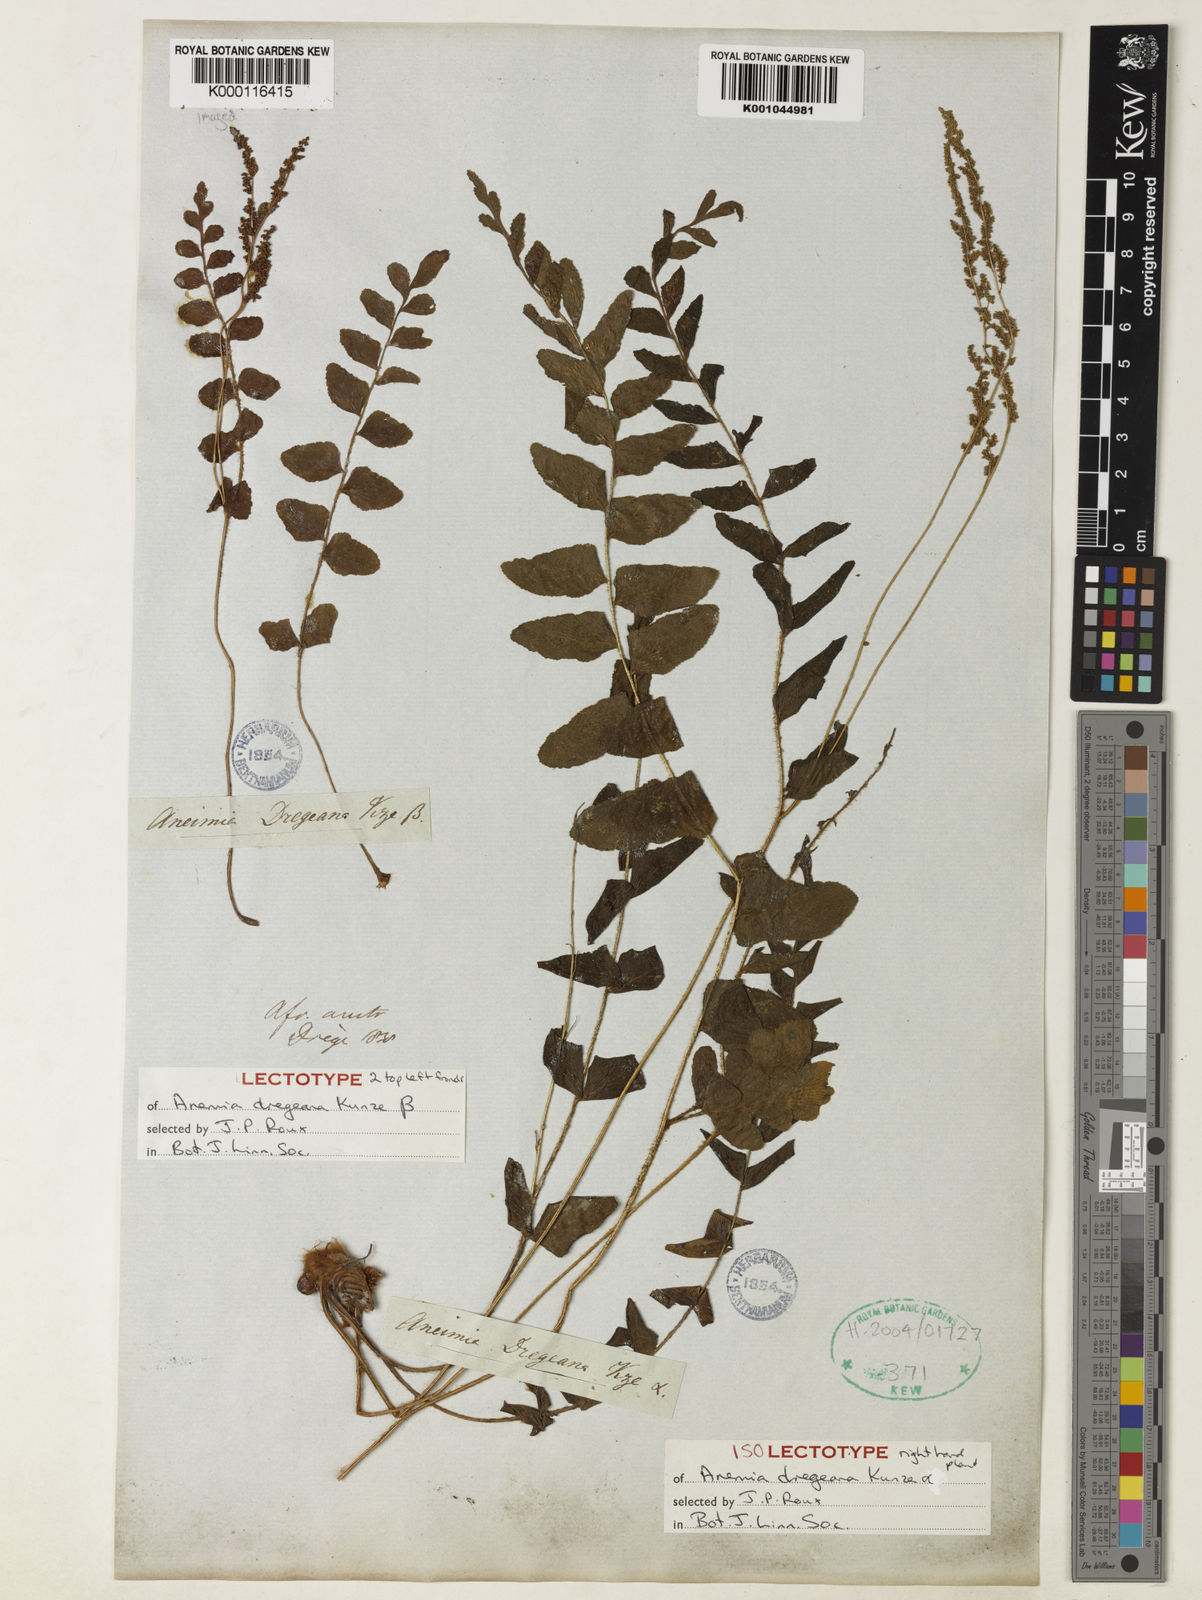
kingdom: Plantae
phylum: Tracheophyta
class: Polypodiopsida
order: Schizaeales
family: Anemiaceae
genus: Anemia
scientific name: Anemia dregeana
